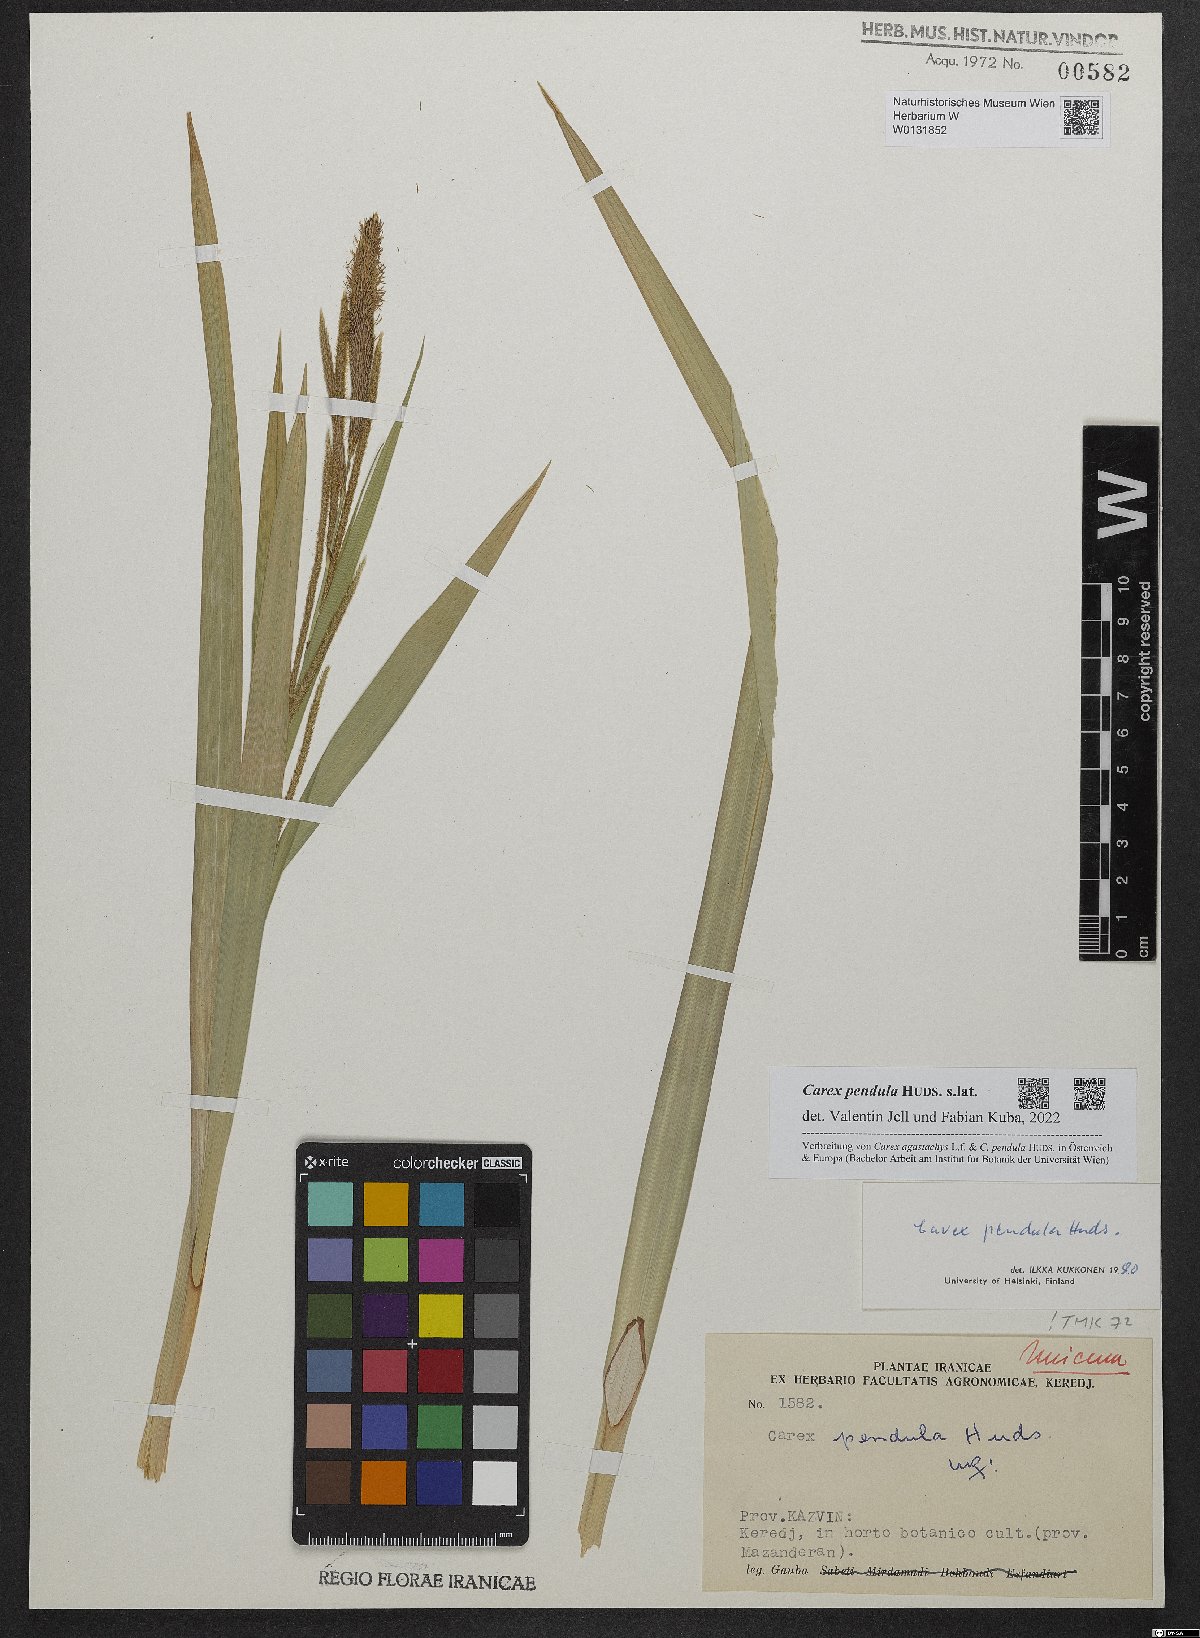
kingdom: Plantae
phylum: Tracheophyta
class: Liliopsida
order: Poales
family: Cyperaceae
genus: Carex
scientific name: Carex pendula
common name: Pendulous sedge
